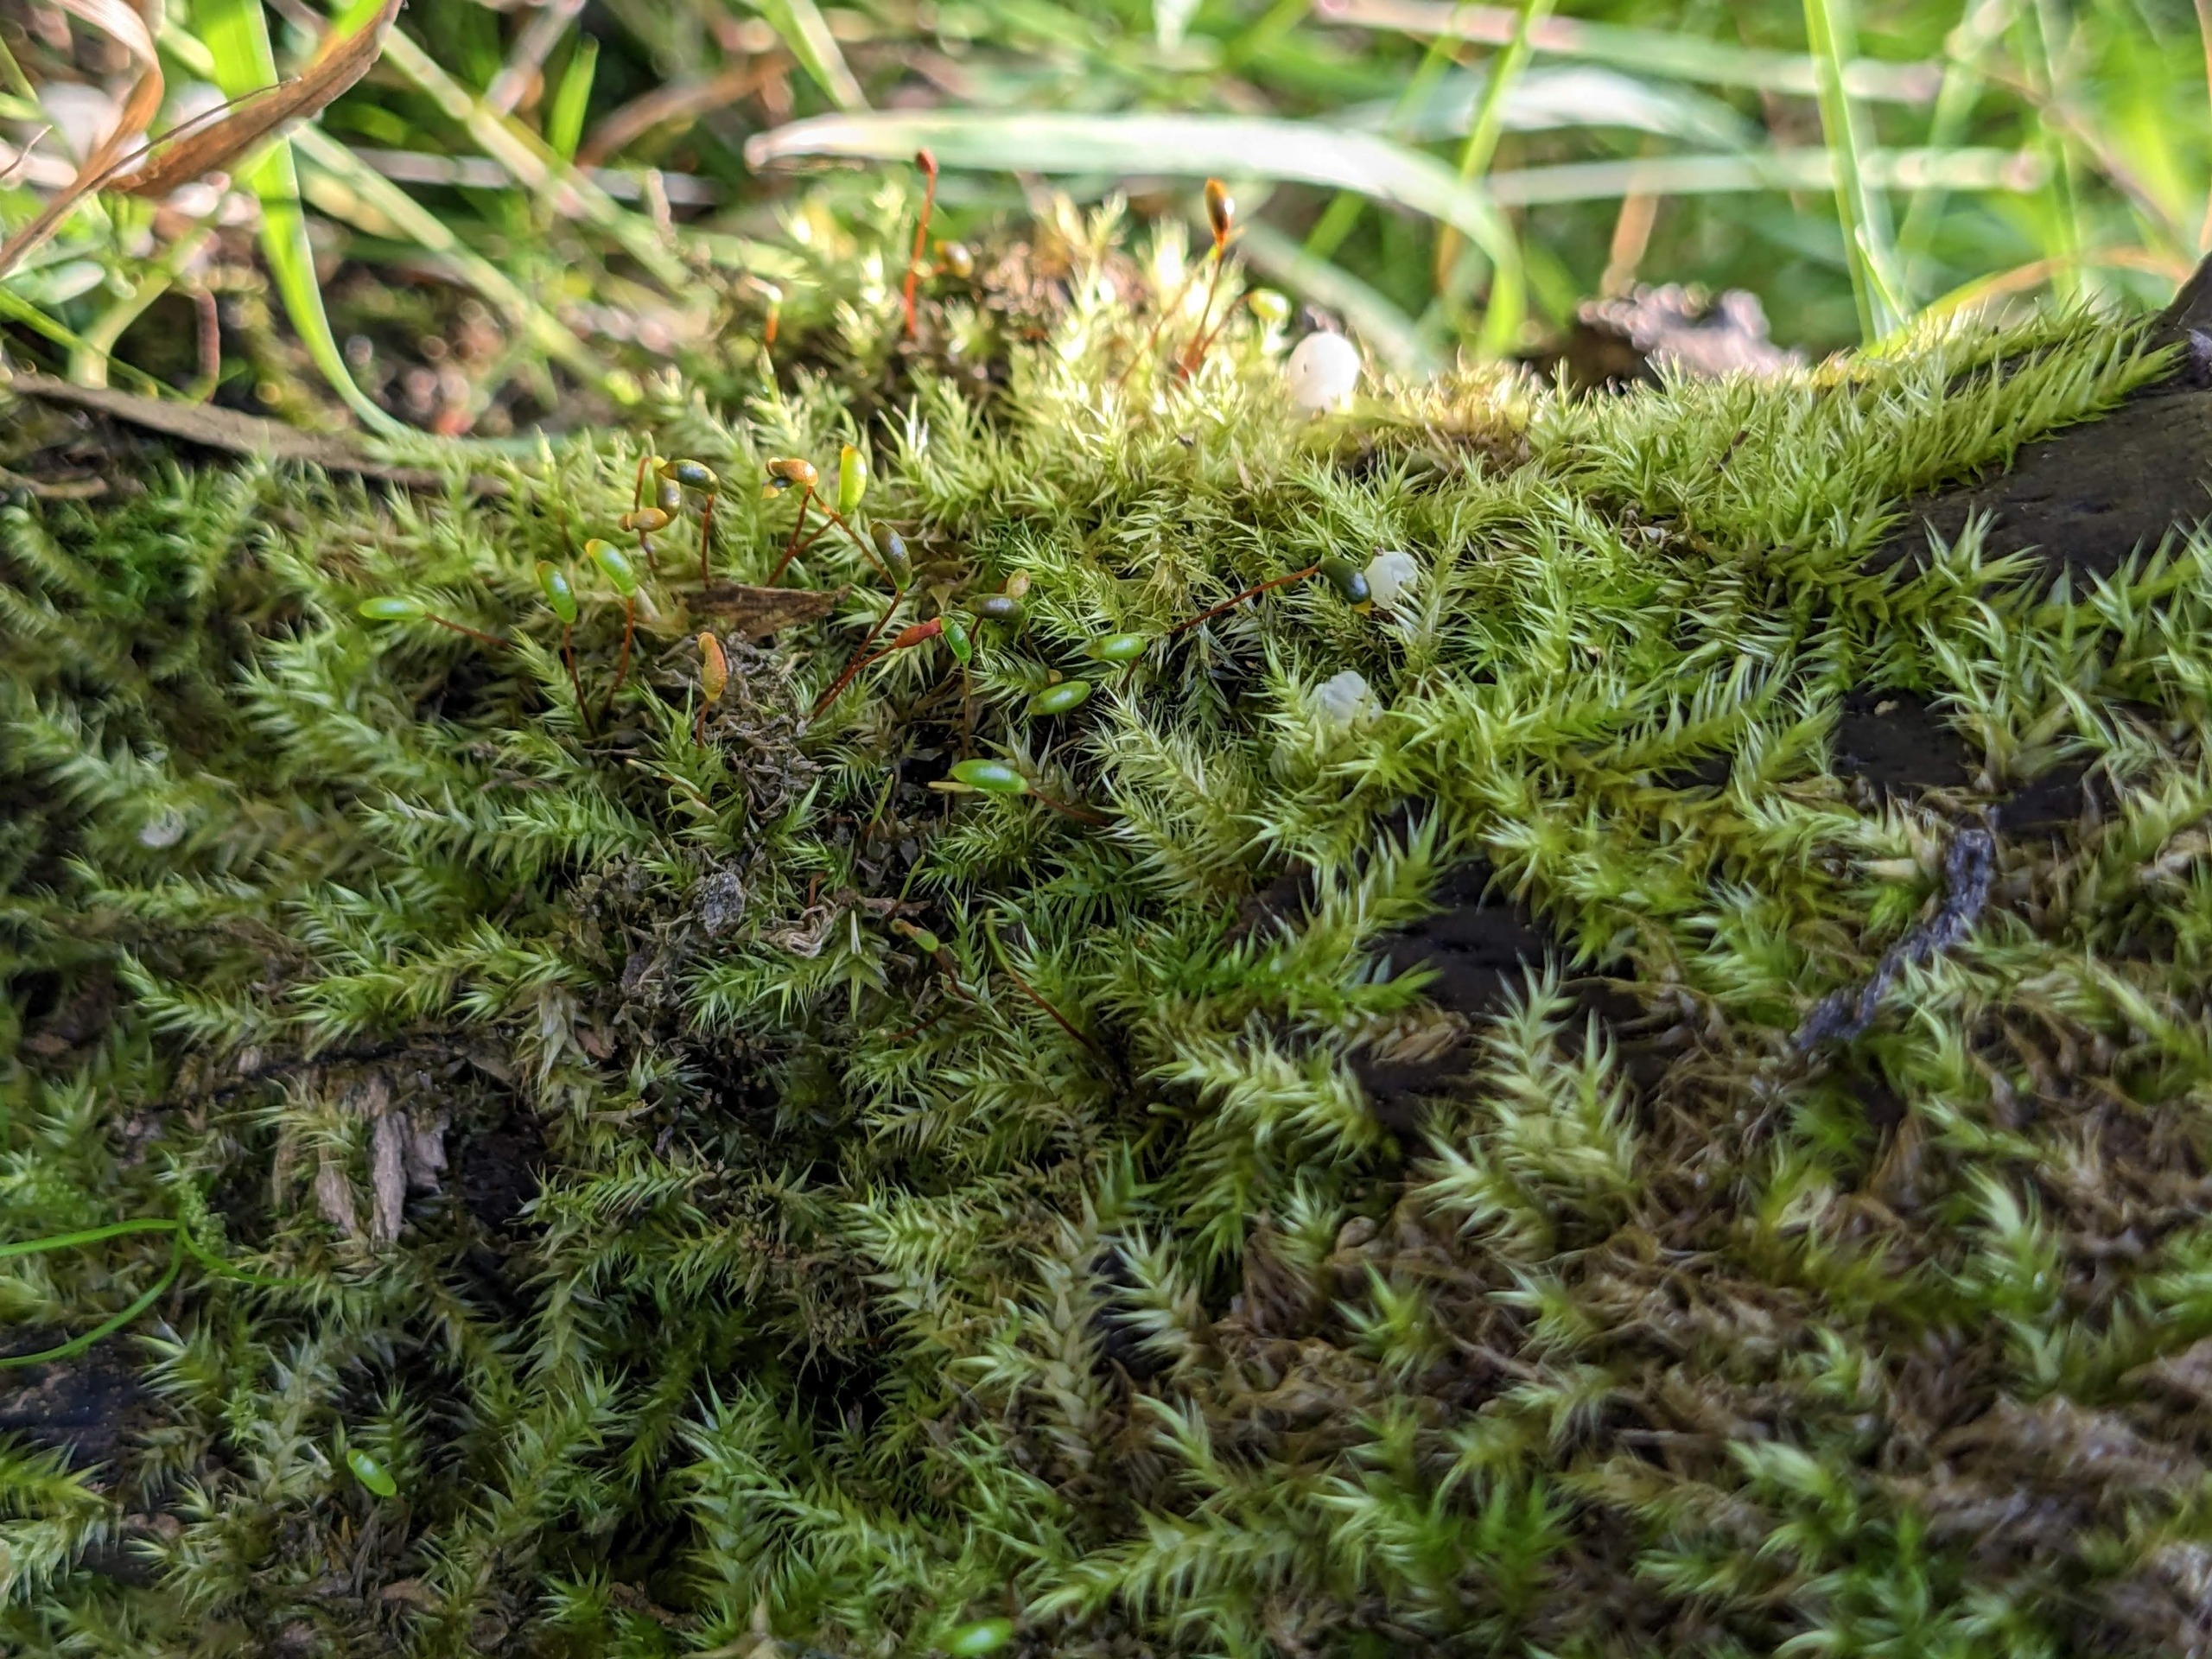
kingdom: Plantae
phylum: Bryophyta
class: Bryopsida
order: Hypnales
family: Amblystegiaceae
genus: Leptodictyum
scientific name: Leptodictyum riparium
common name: Stor pytmos
